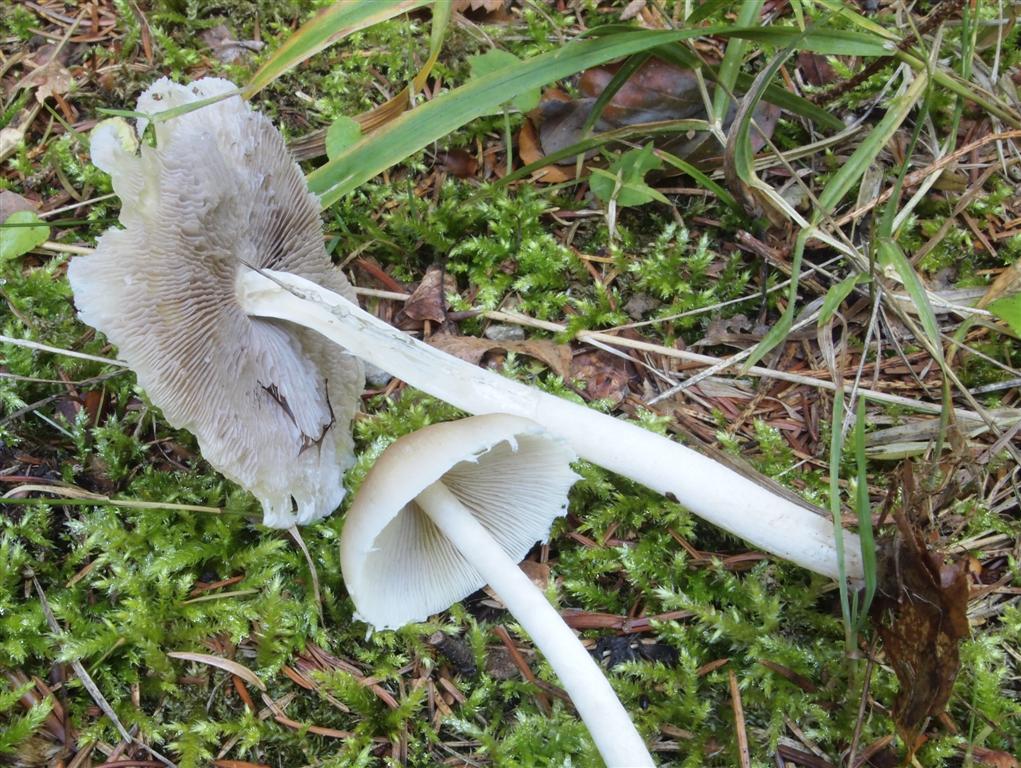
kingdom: Fungi
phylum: Basidiomycota
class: Agaricomycetes
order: Agaricales
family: Psathyrellaceae
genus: Candolleomyces
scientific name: Candolleomyces candolleanus
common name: Candolles mørkhat
